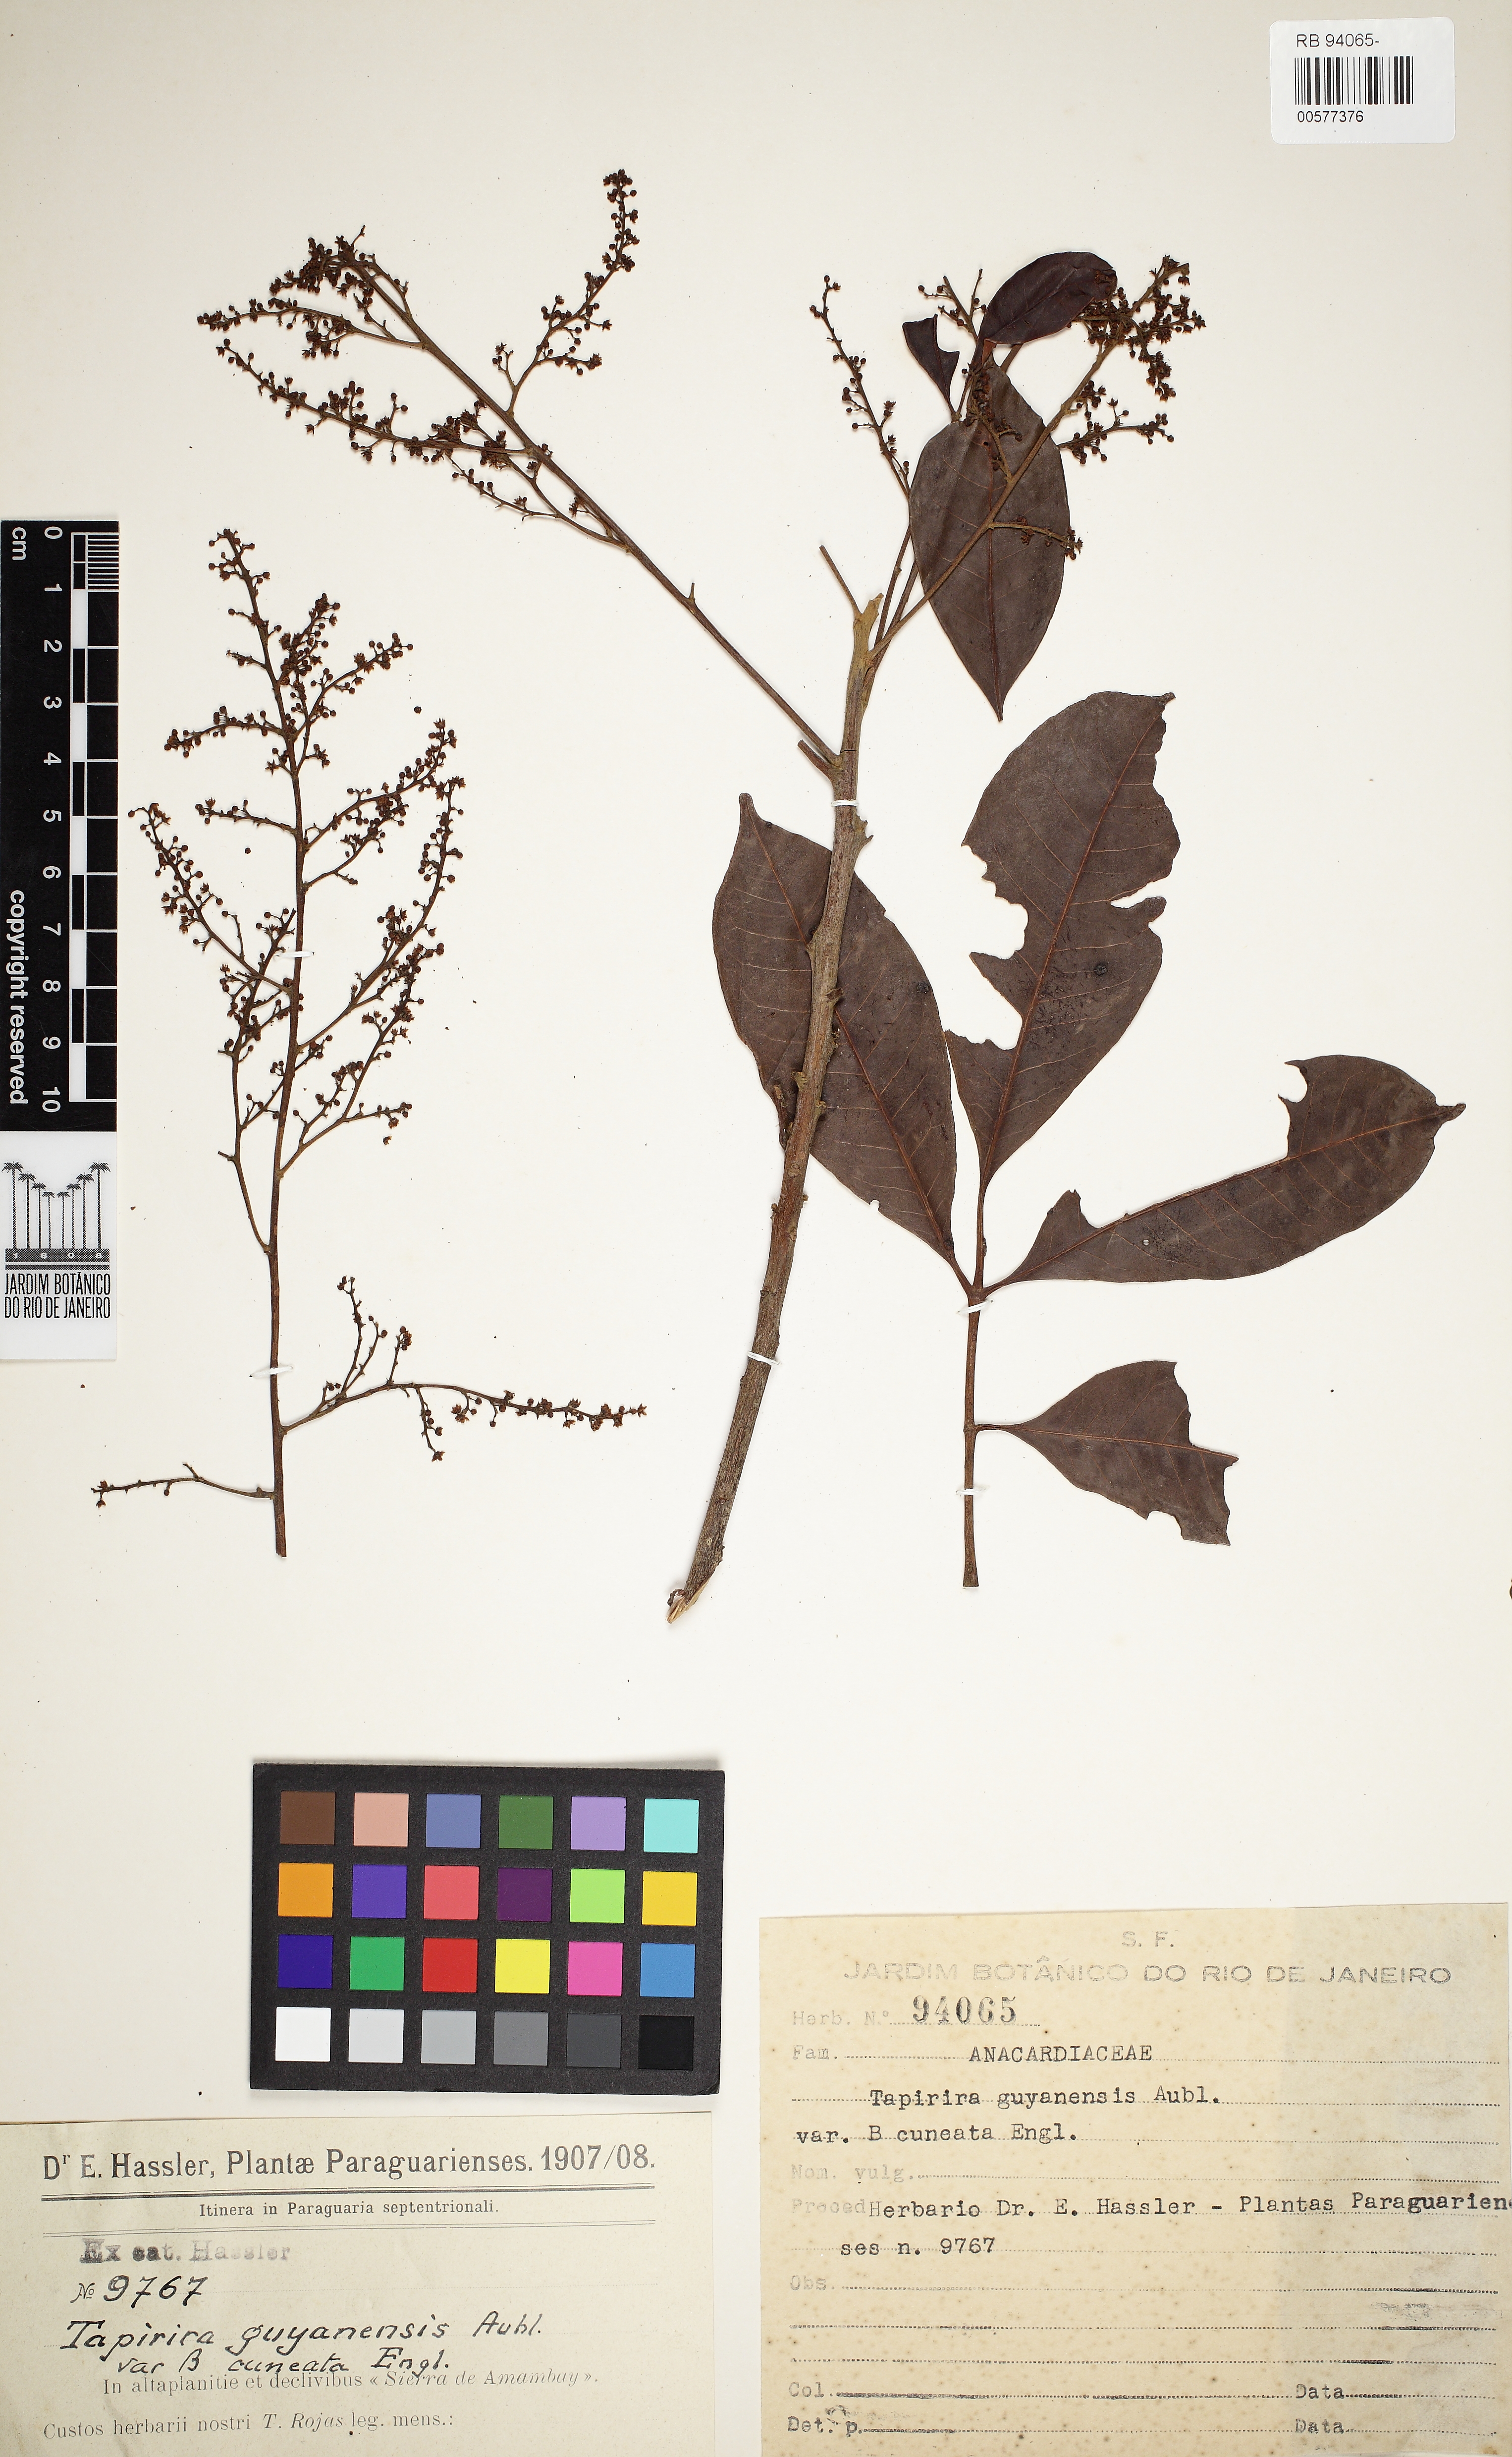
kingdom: Plantae
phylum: Tracheophyta
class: Magnoliopsida
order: Sapindales
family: Anacardiaceae
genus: Tapirira
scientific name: Tapirira guianensis
